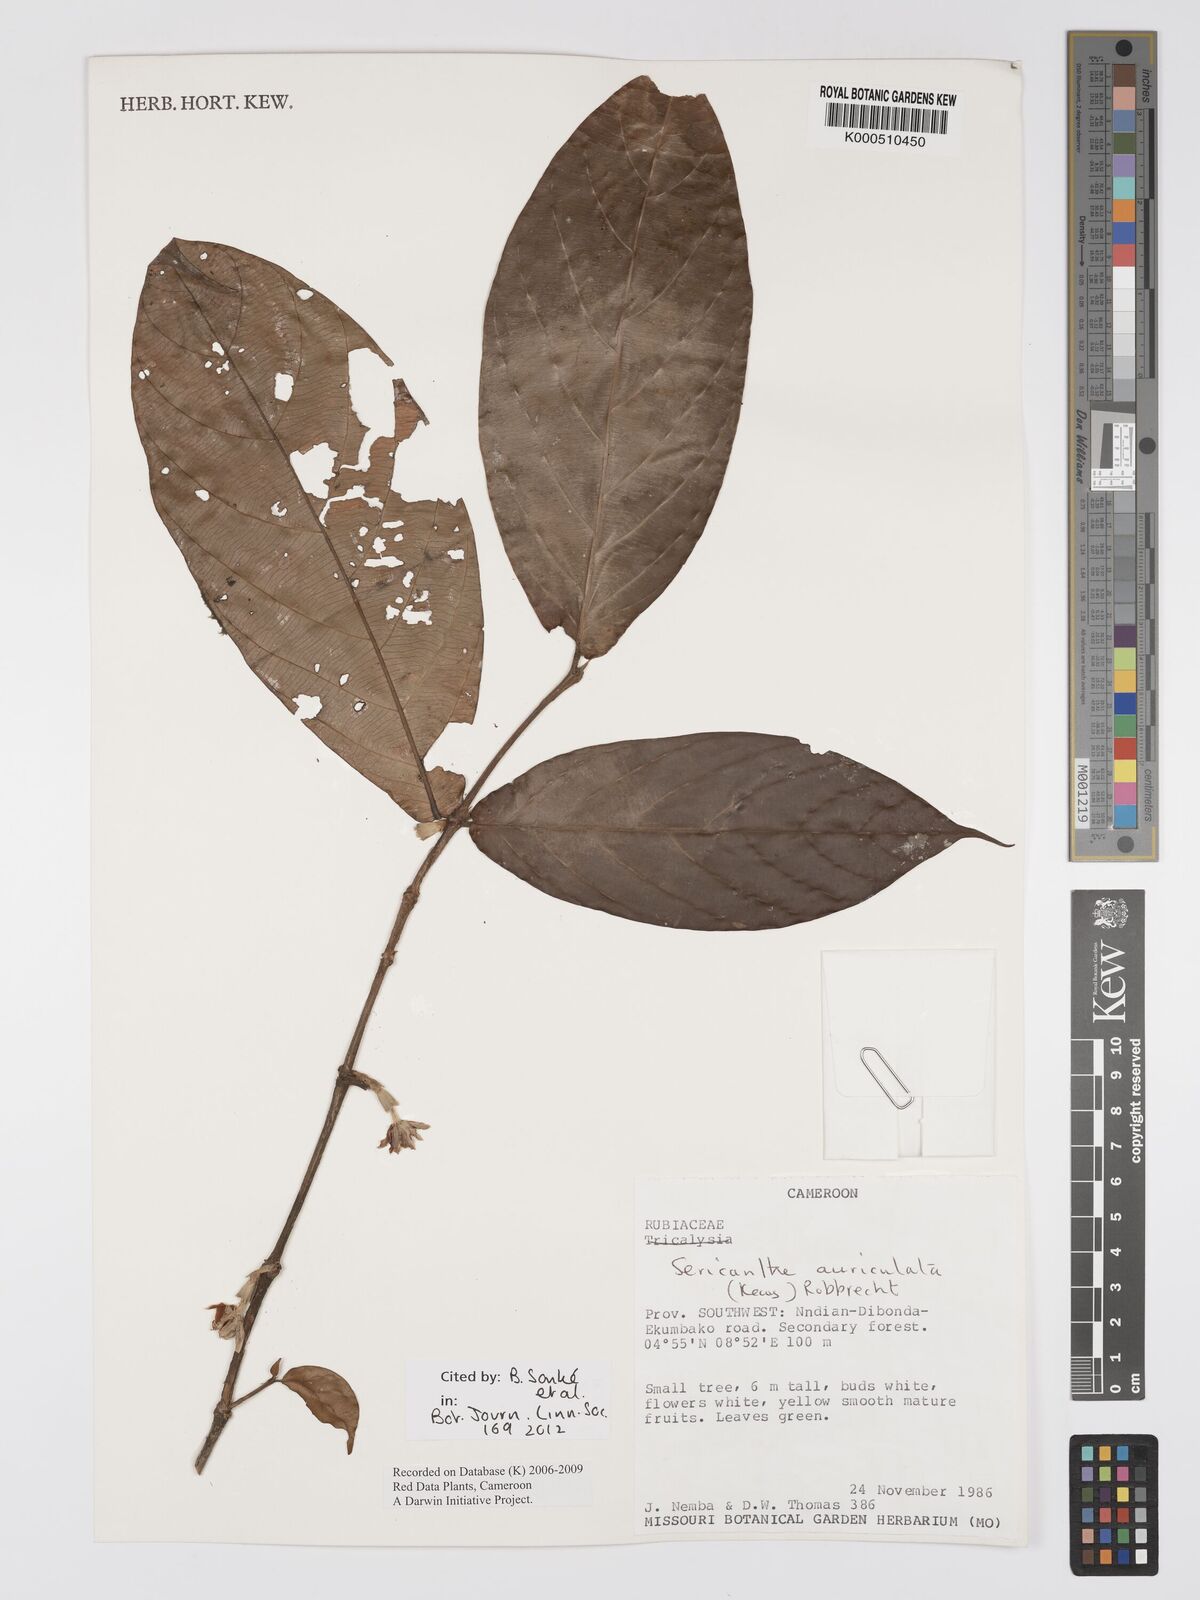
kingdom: Plantae
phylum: Tracheophyta
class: Magnoliopsida
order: Gentianales
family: Rubiaceae
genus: Sericanthe
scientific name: Sericanthe auriculata
